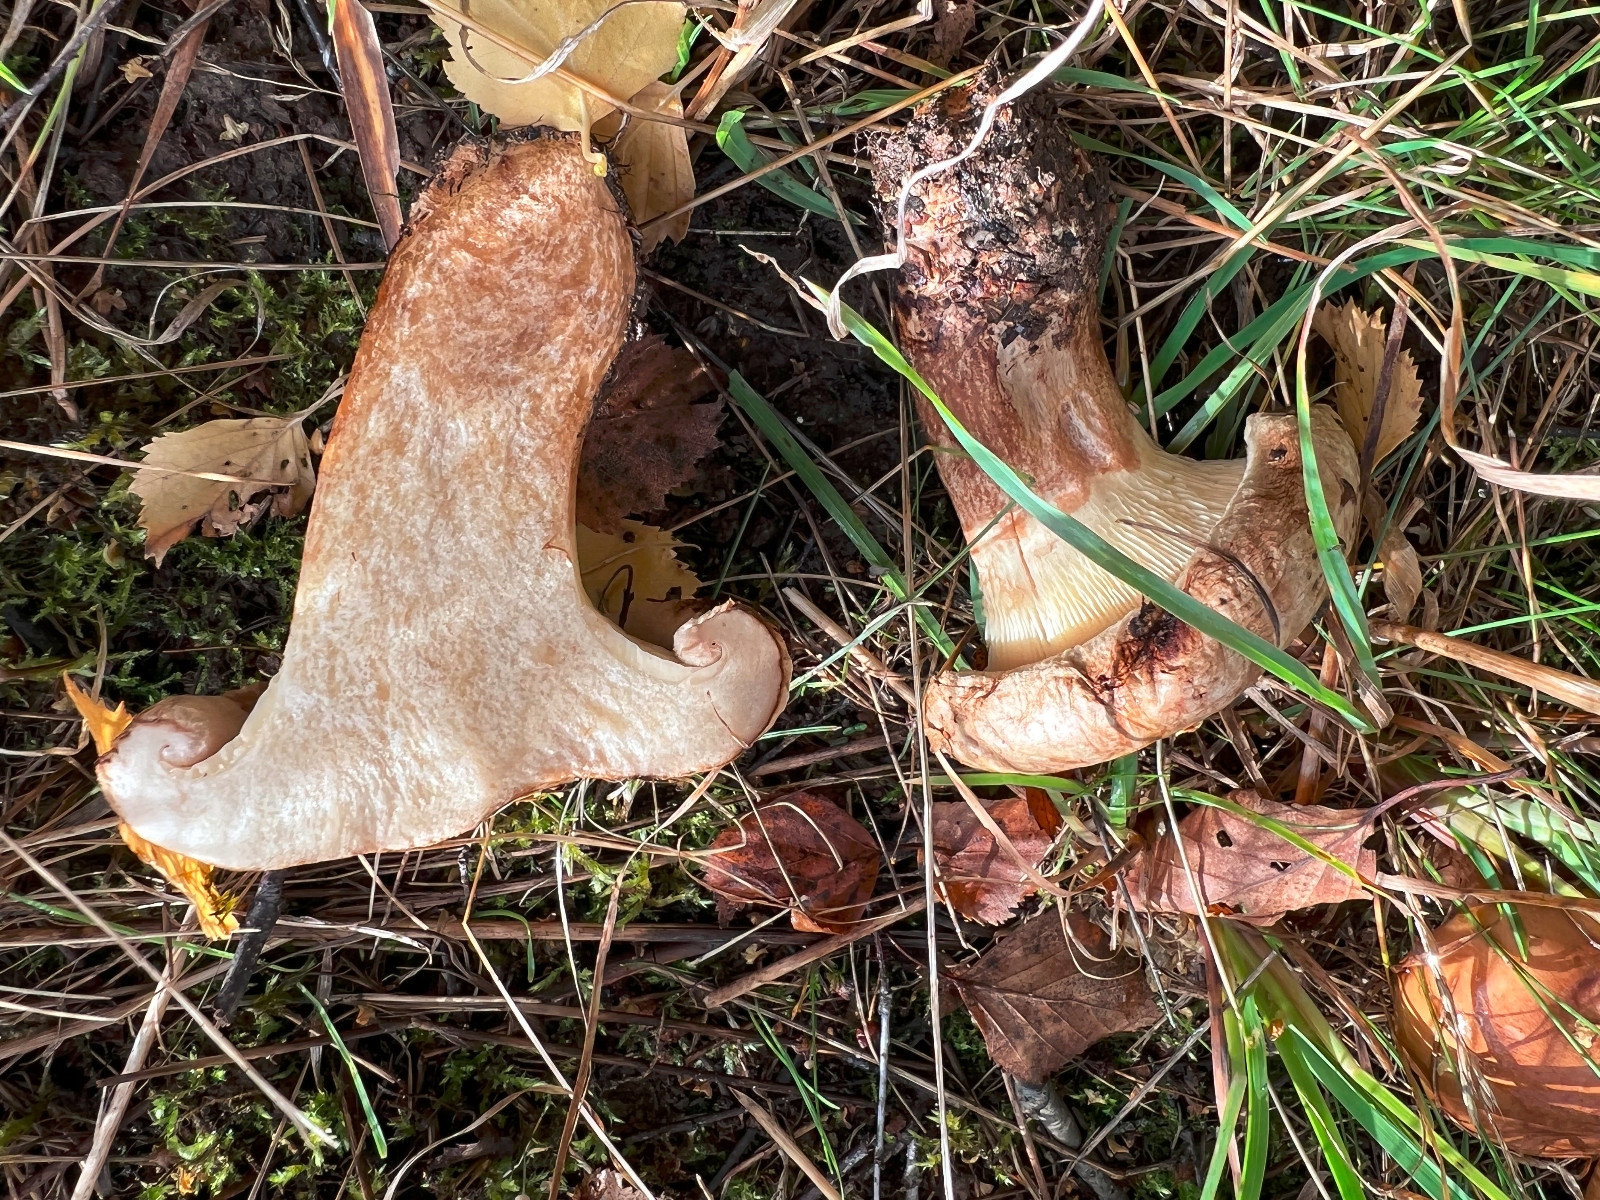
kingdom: Fungi
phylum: Basidiomycota
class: Agaricomycetes
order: Boletales
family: Paxillaceae
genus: Paxillus
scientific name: Paxillus
